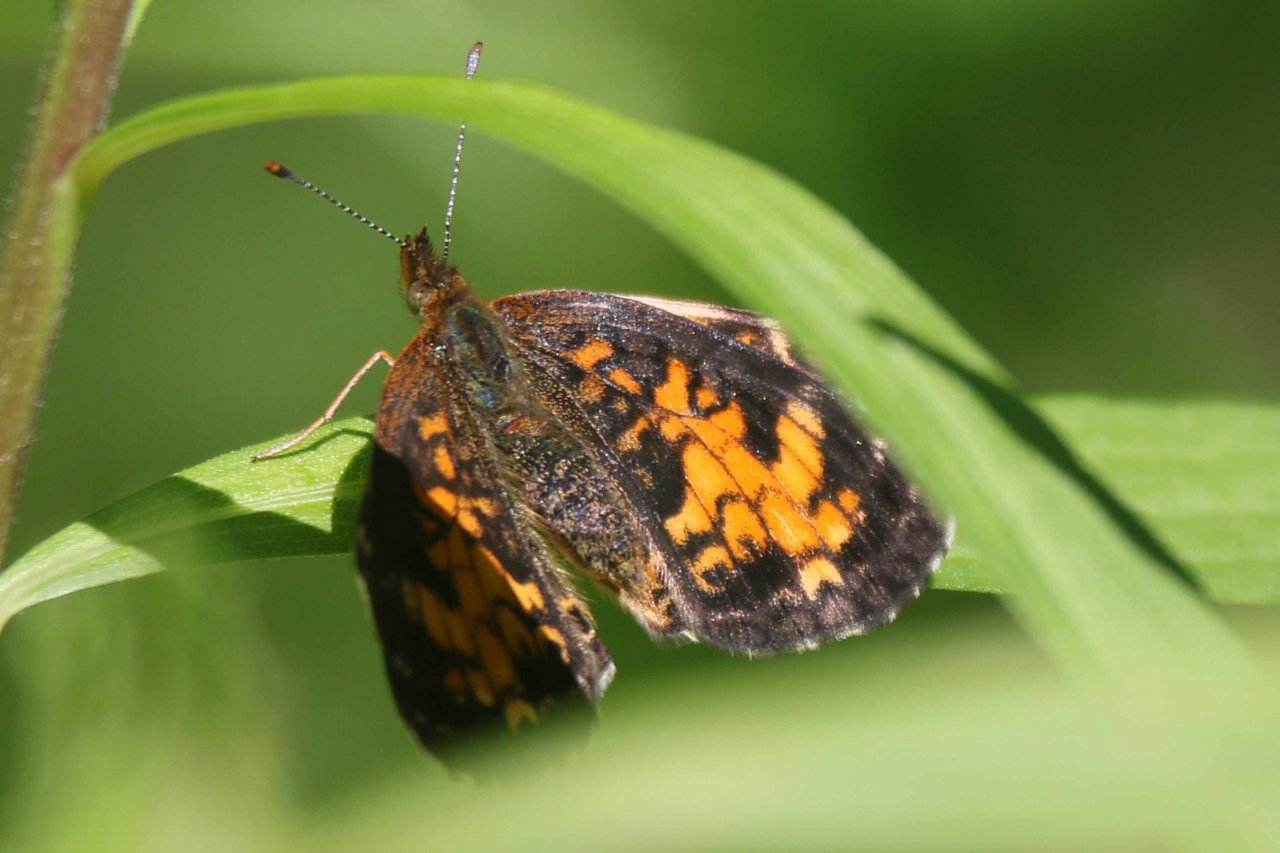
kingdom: Animalia
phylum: Arthropoda
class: Insecta
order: Lepidoptera
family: Nymphalidae
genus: Phyciodes
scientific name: Phyciodes tharos
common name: Pearl Crescent
